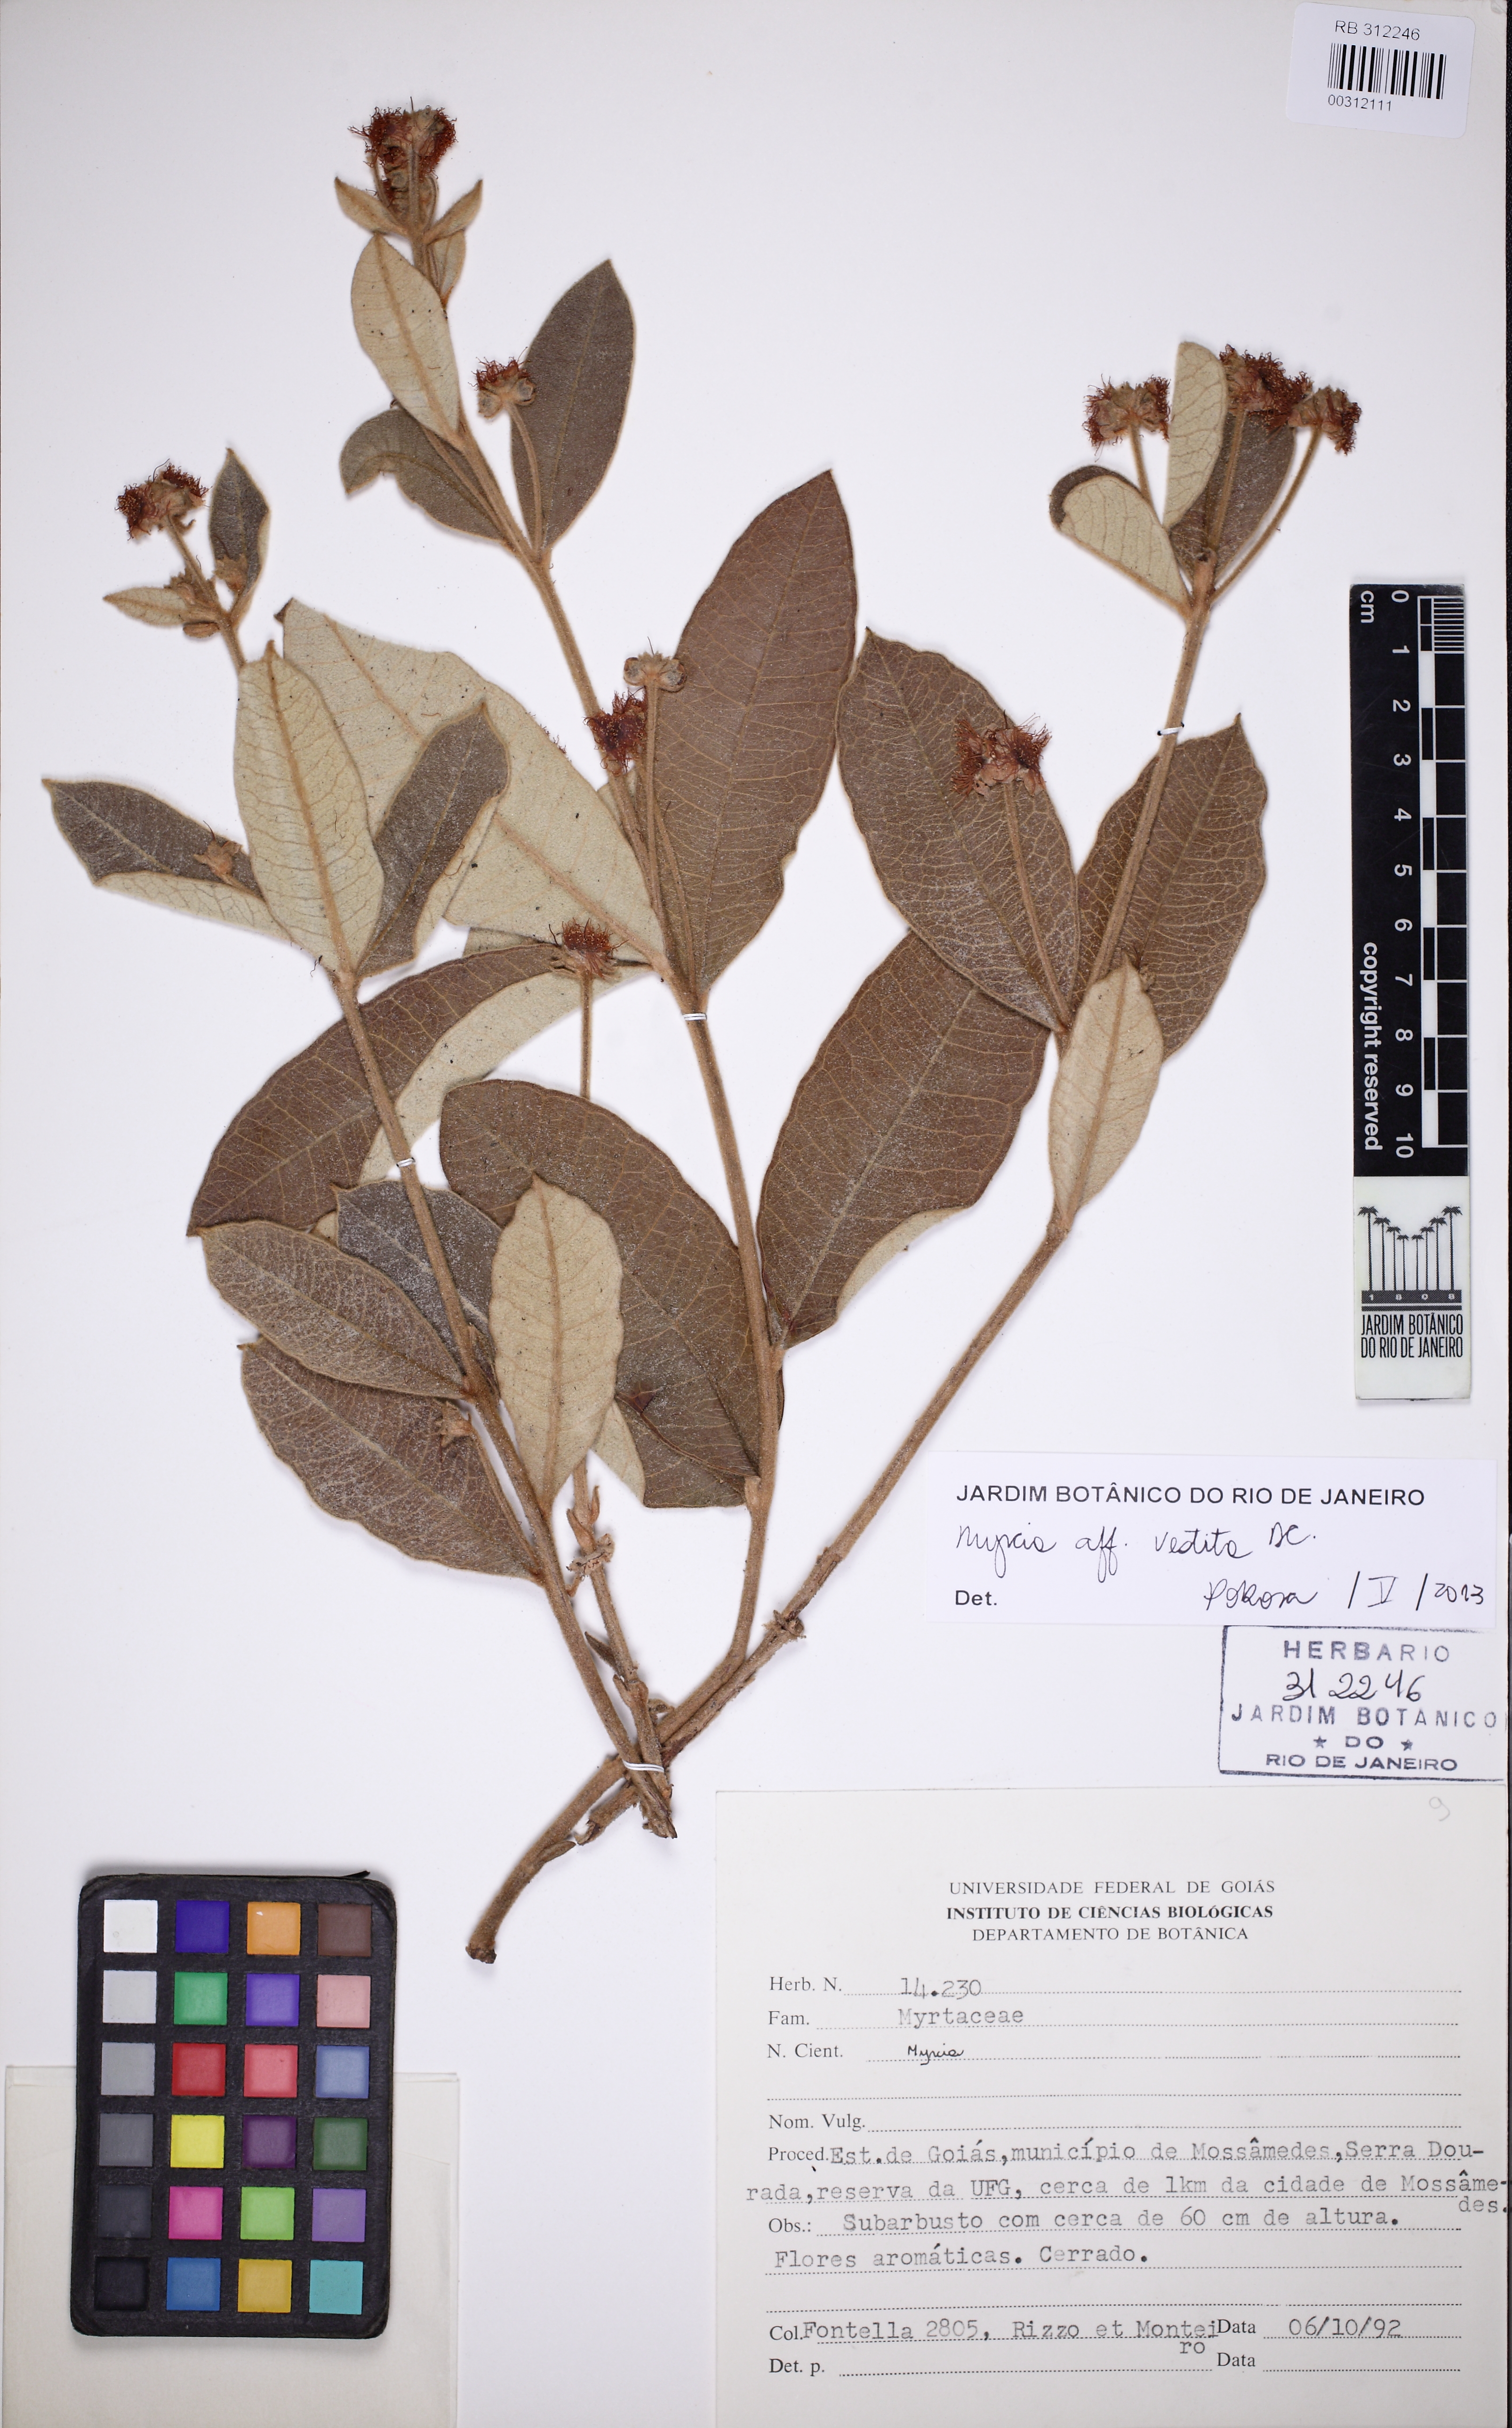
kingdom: Plantae
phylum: Tracheophyta
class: Magnoliopsida
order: Myrtales
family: Myrtaceae
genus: Myrcia
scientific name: Myrcia vestita
